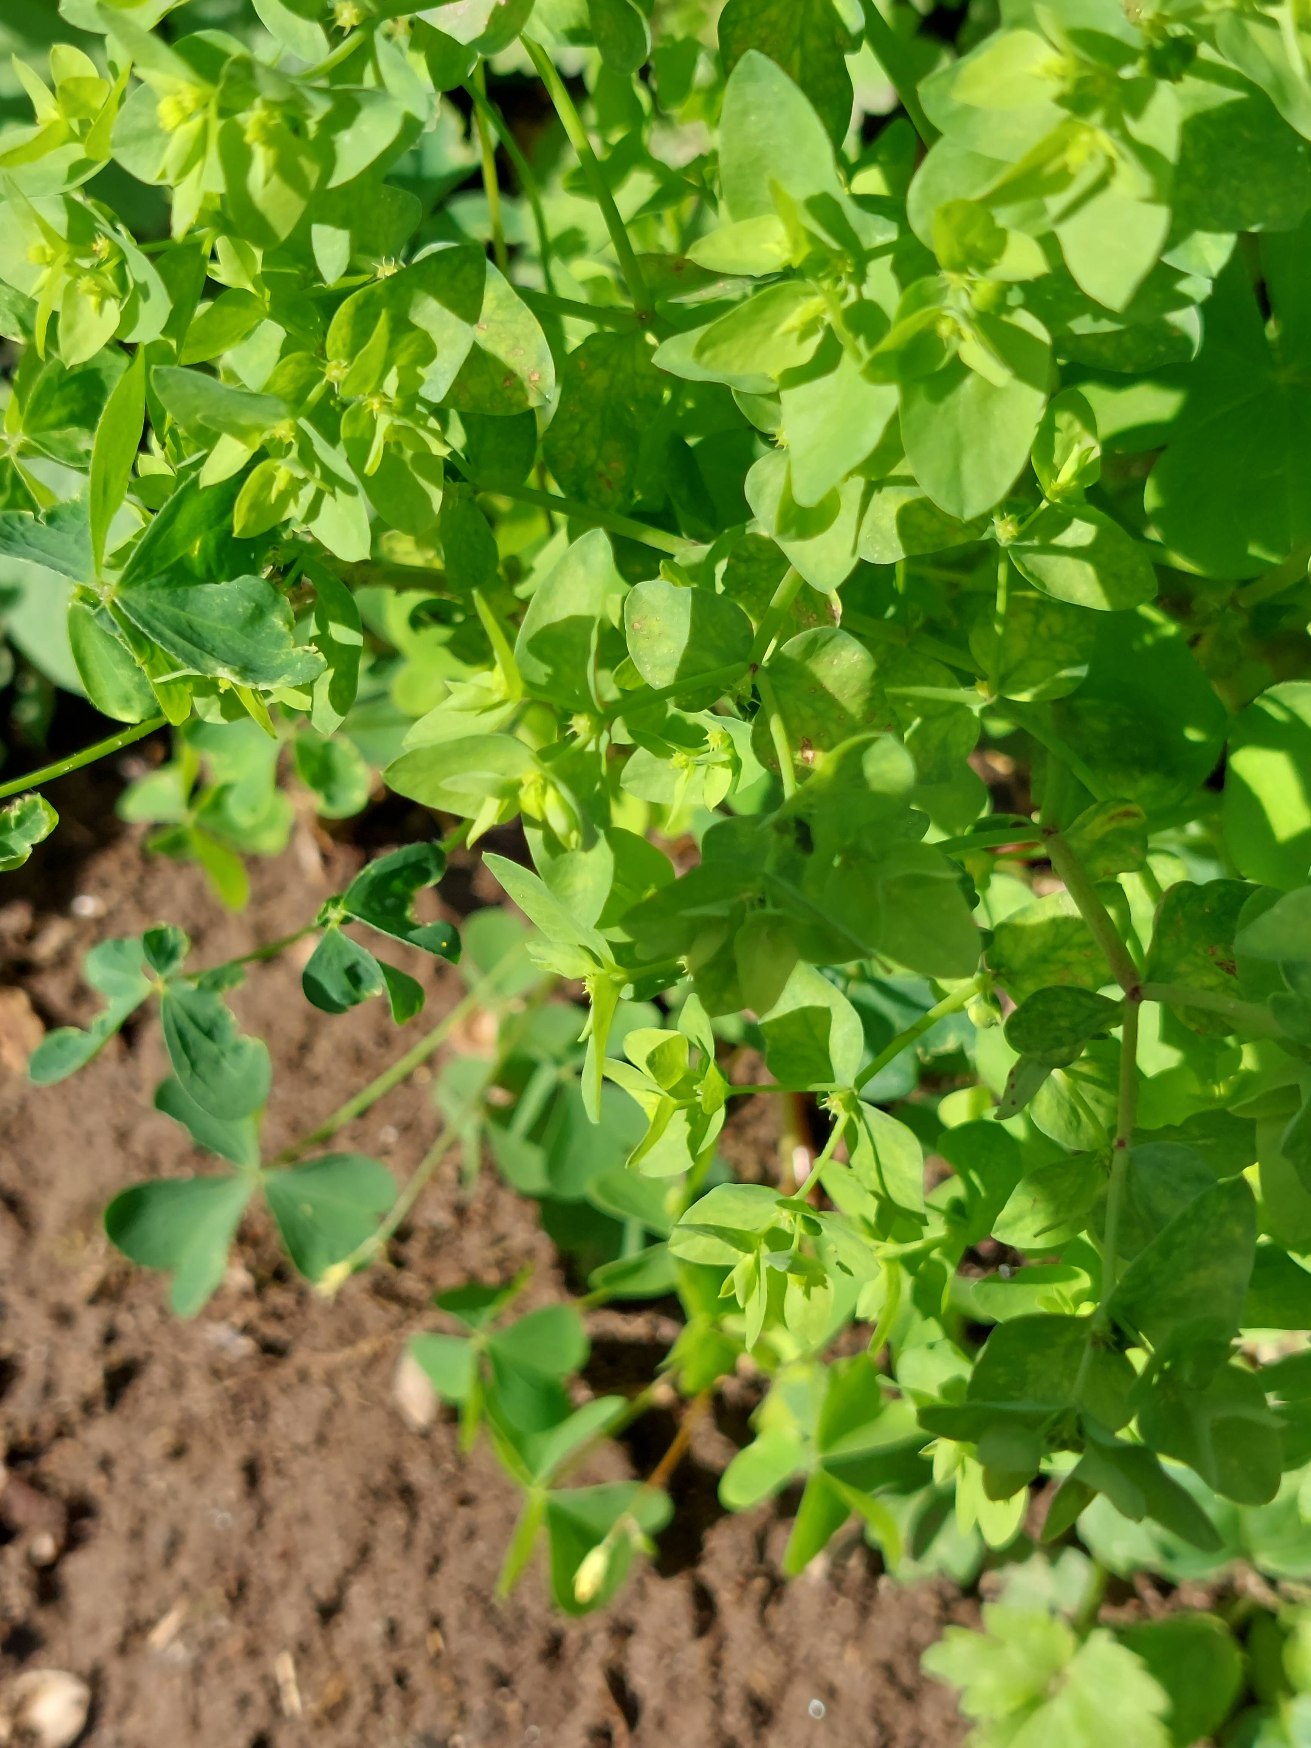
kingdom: Plantae
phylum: Tracheophyta
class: Magnoliopsida
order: Malpighiales
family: Euphorbiaceae
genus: Euphorbia
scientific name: Euphorbia peplus
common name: Gaffel-vortemælk
